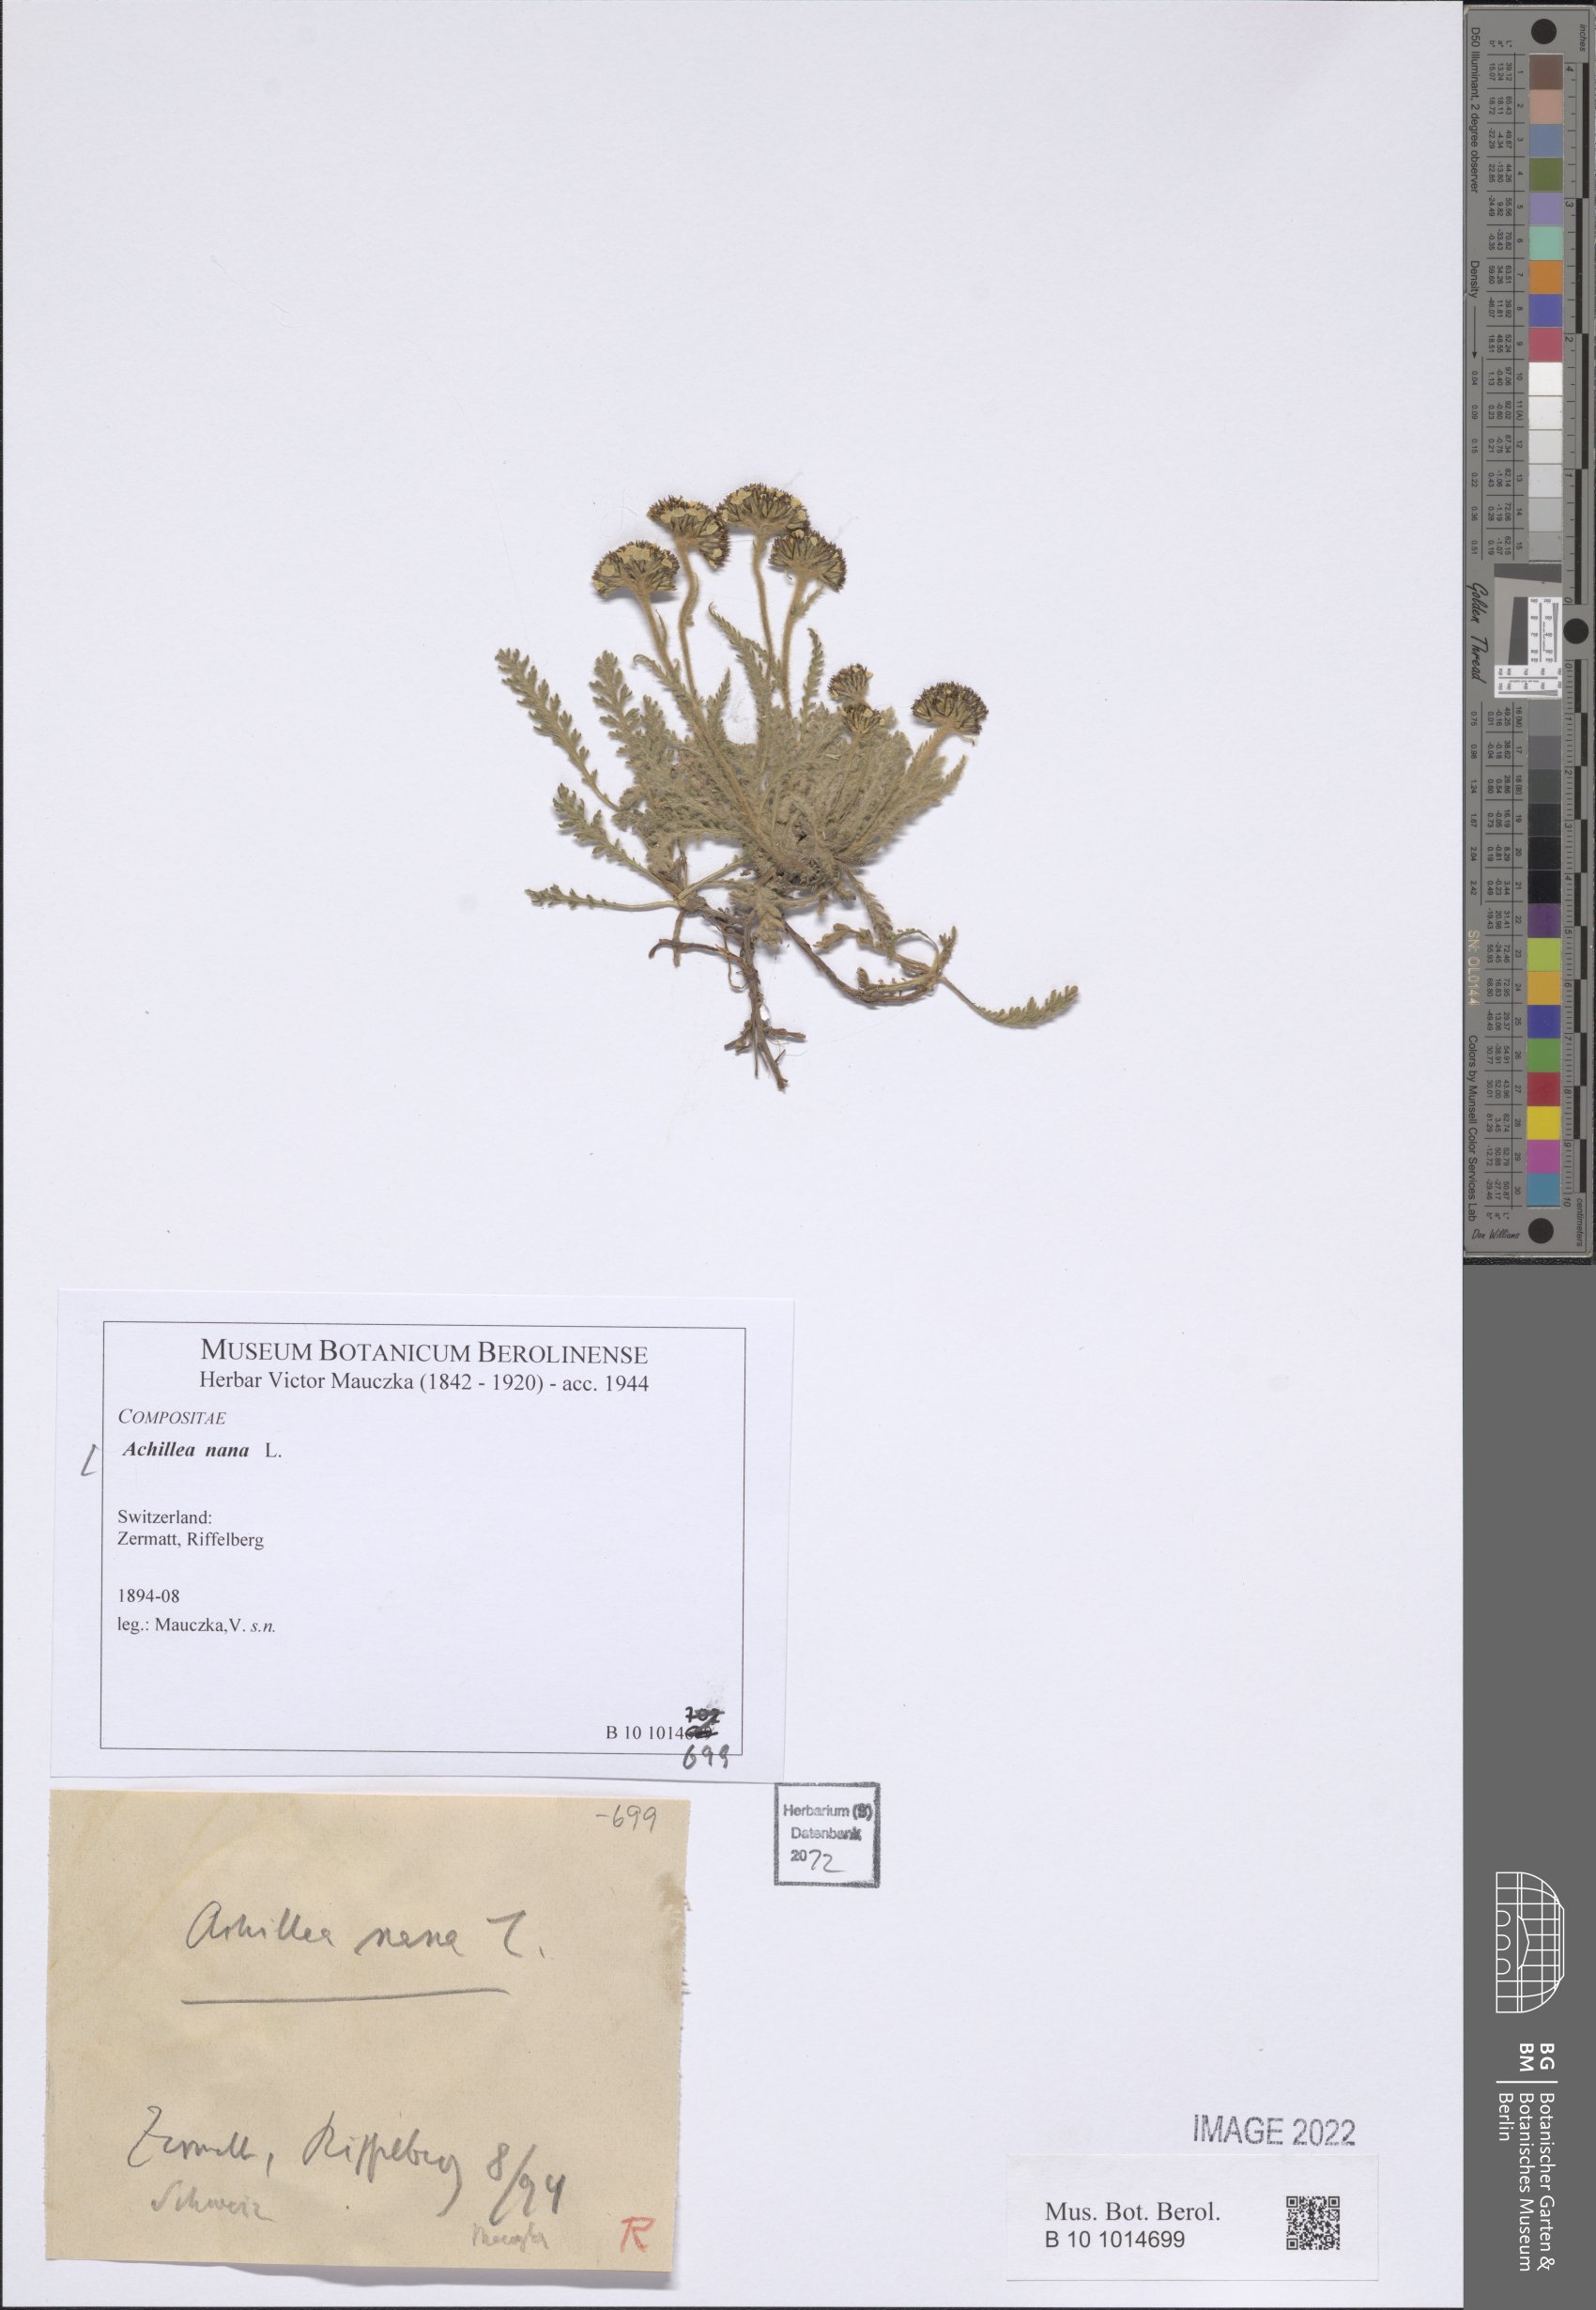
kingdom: Plantae
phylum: Tracheophyta
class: Magnoliopsida
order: Asterales
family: Asteraceae
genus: Achillea
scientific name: Achillea nana
